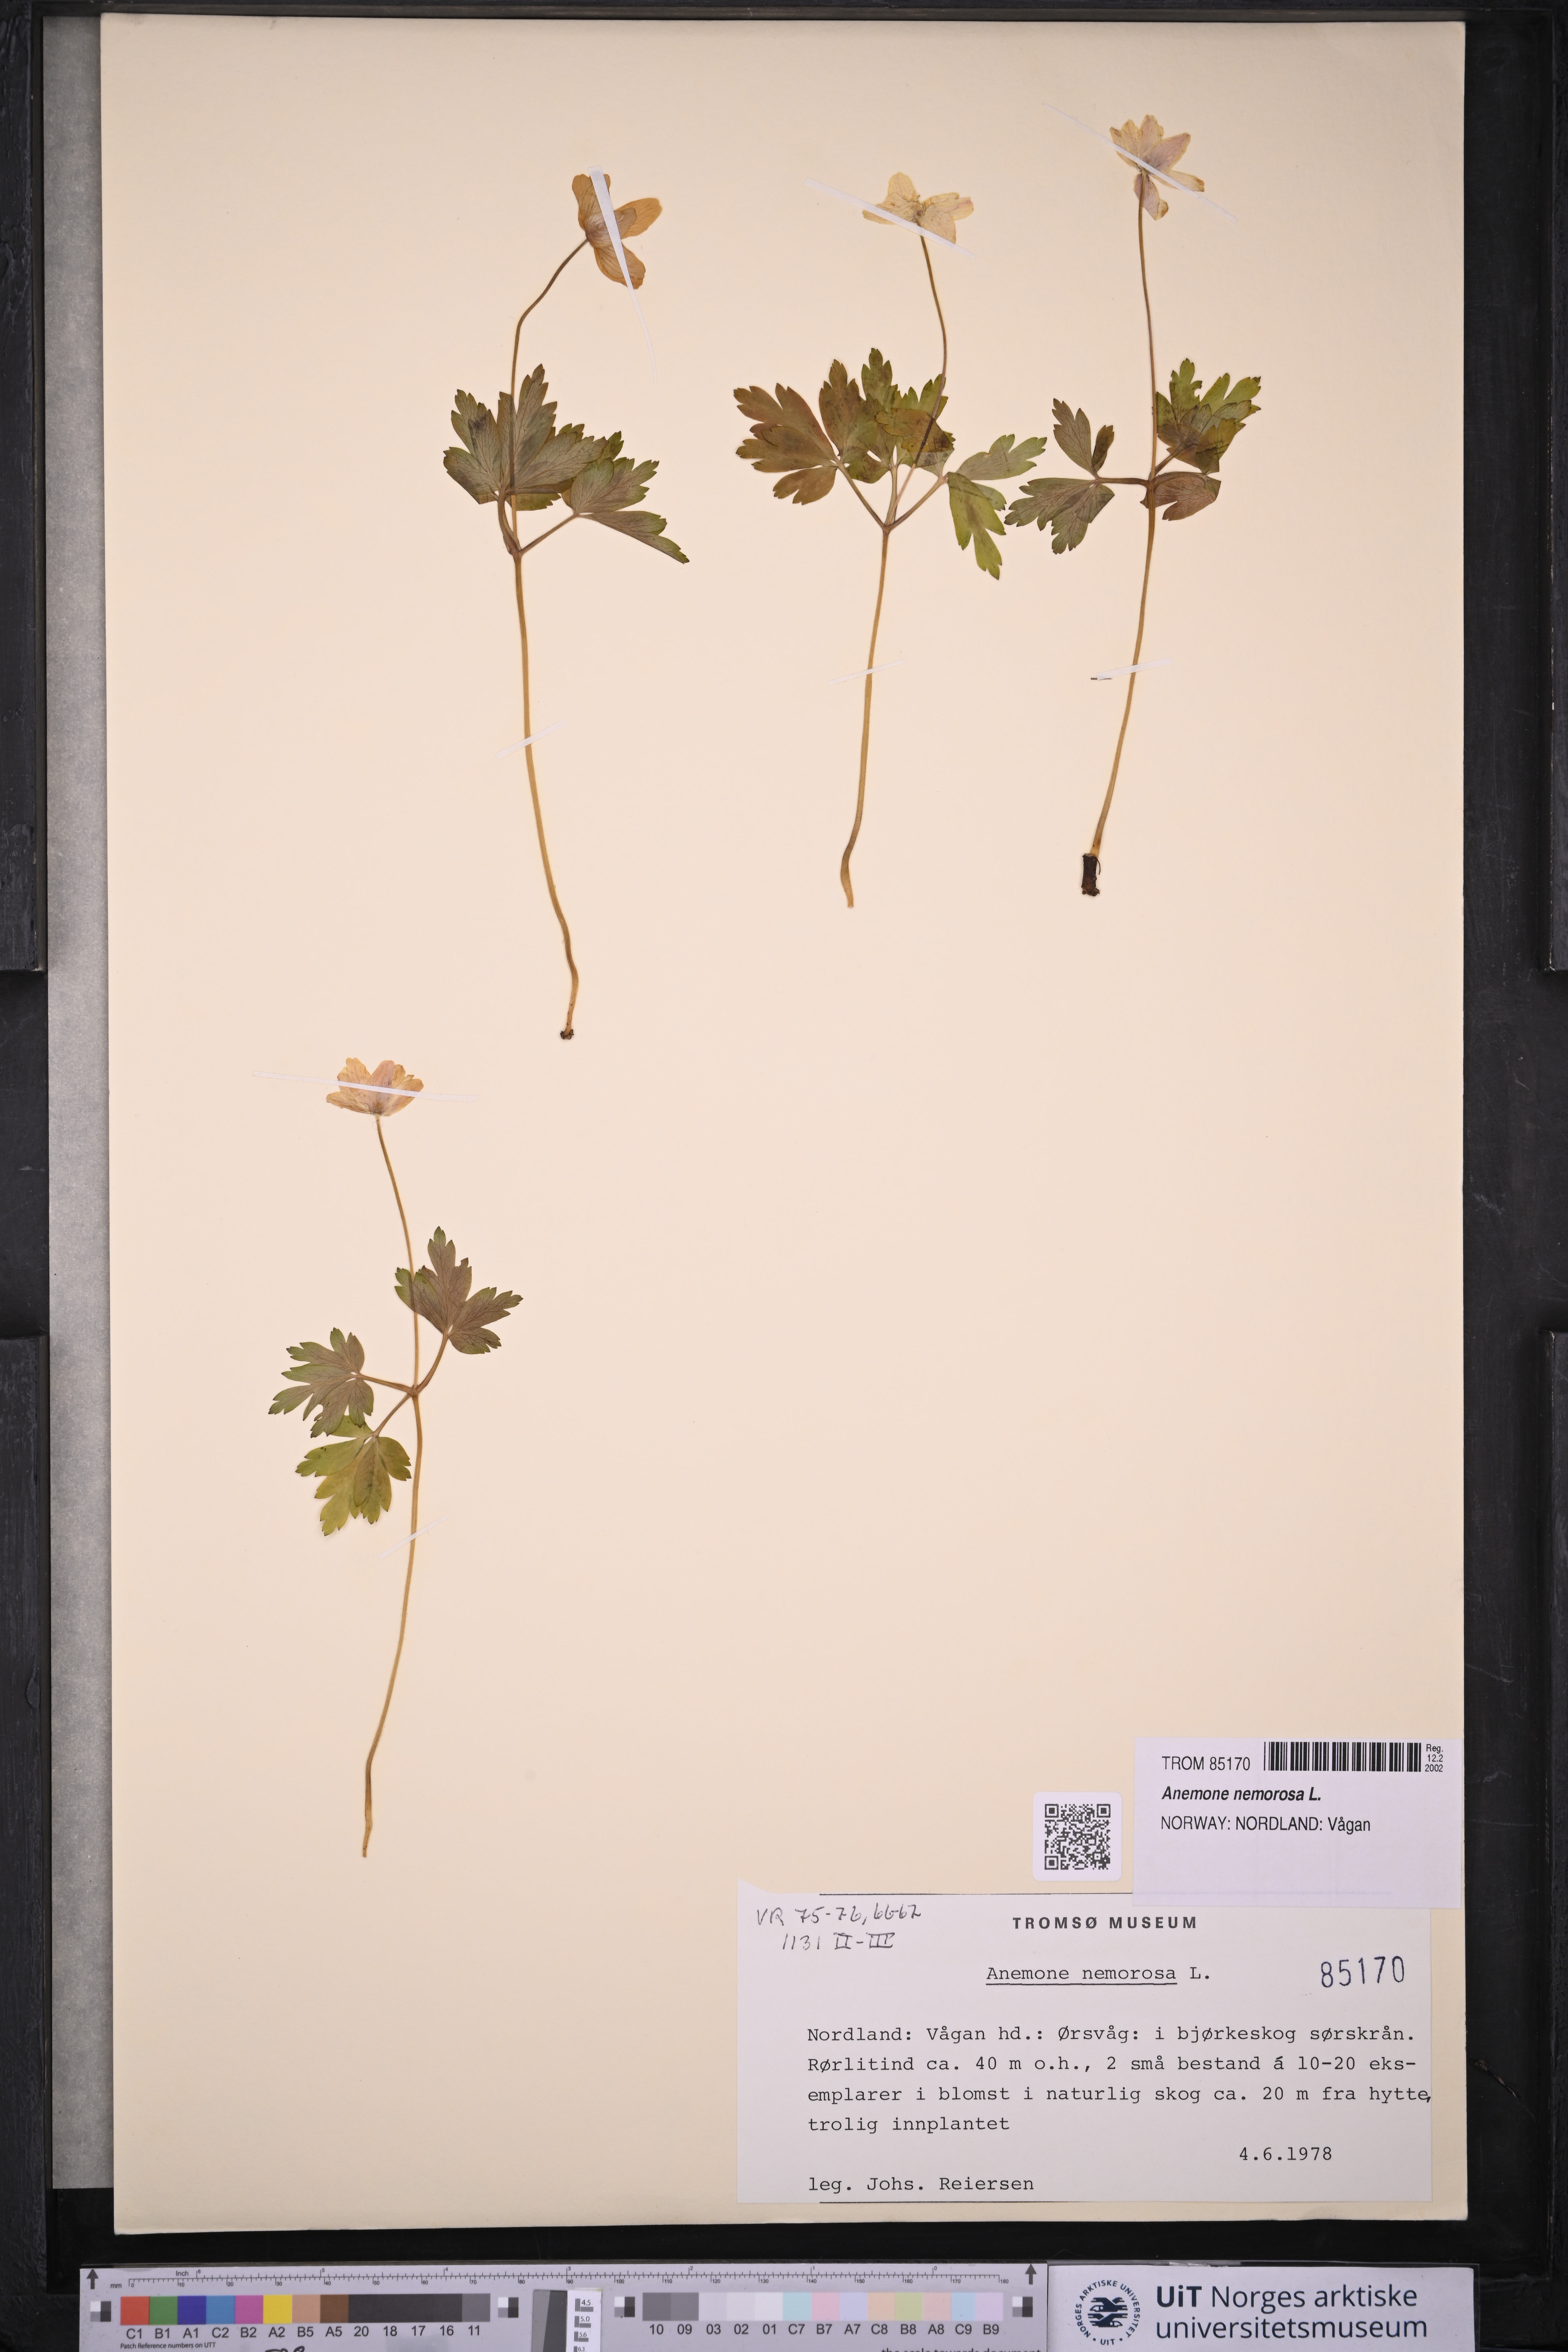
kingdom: Plantae
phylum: Tracheophyta
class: Magnoliopsida
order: Ranunculales
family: Ranunculaceae
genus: Anemone
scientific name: Anemone nemorosa
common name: Wood anemone
